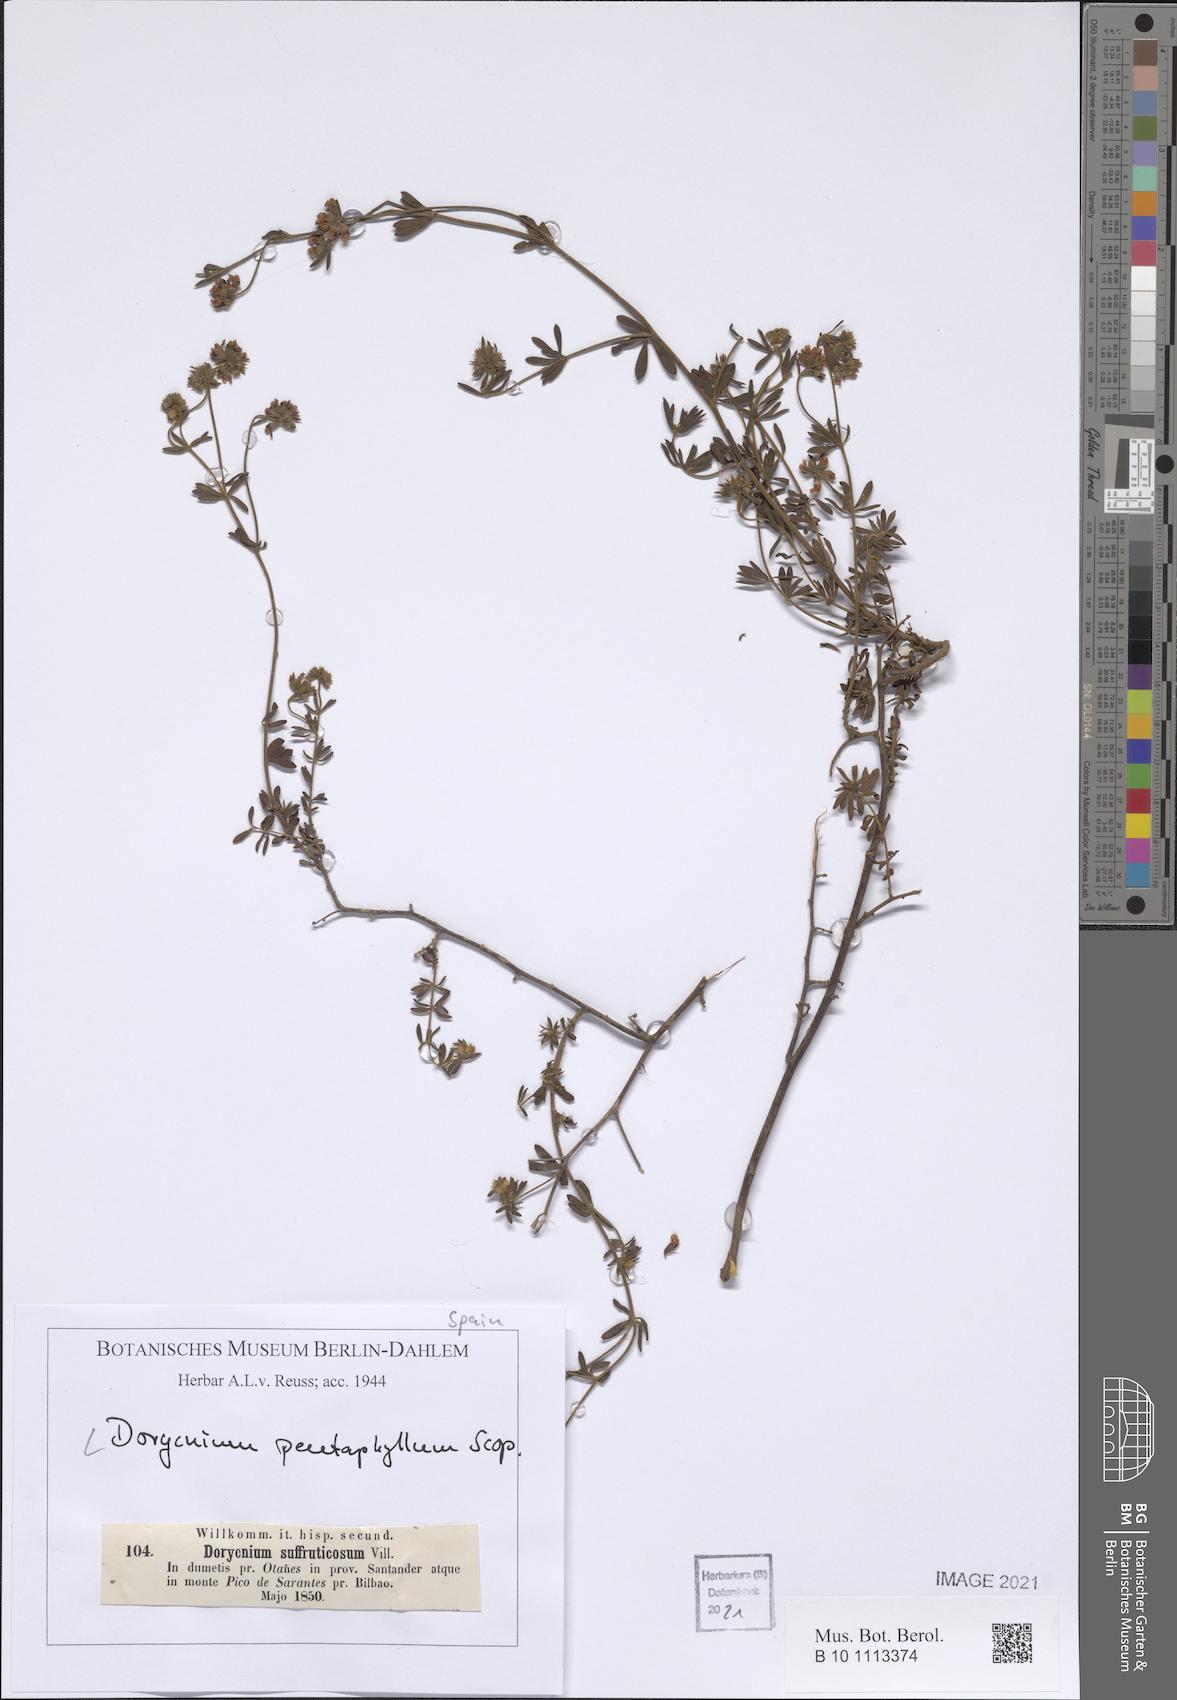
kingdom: Plantae
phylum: Tracheophyta
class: Magnoliopsida
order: Fabales
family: Fabaceae
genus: Lotus
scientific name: Lotus dorycnium
